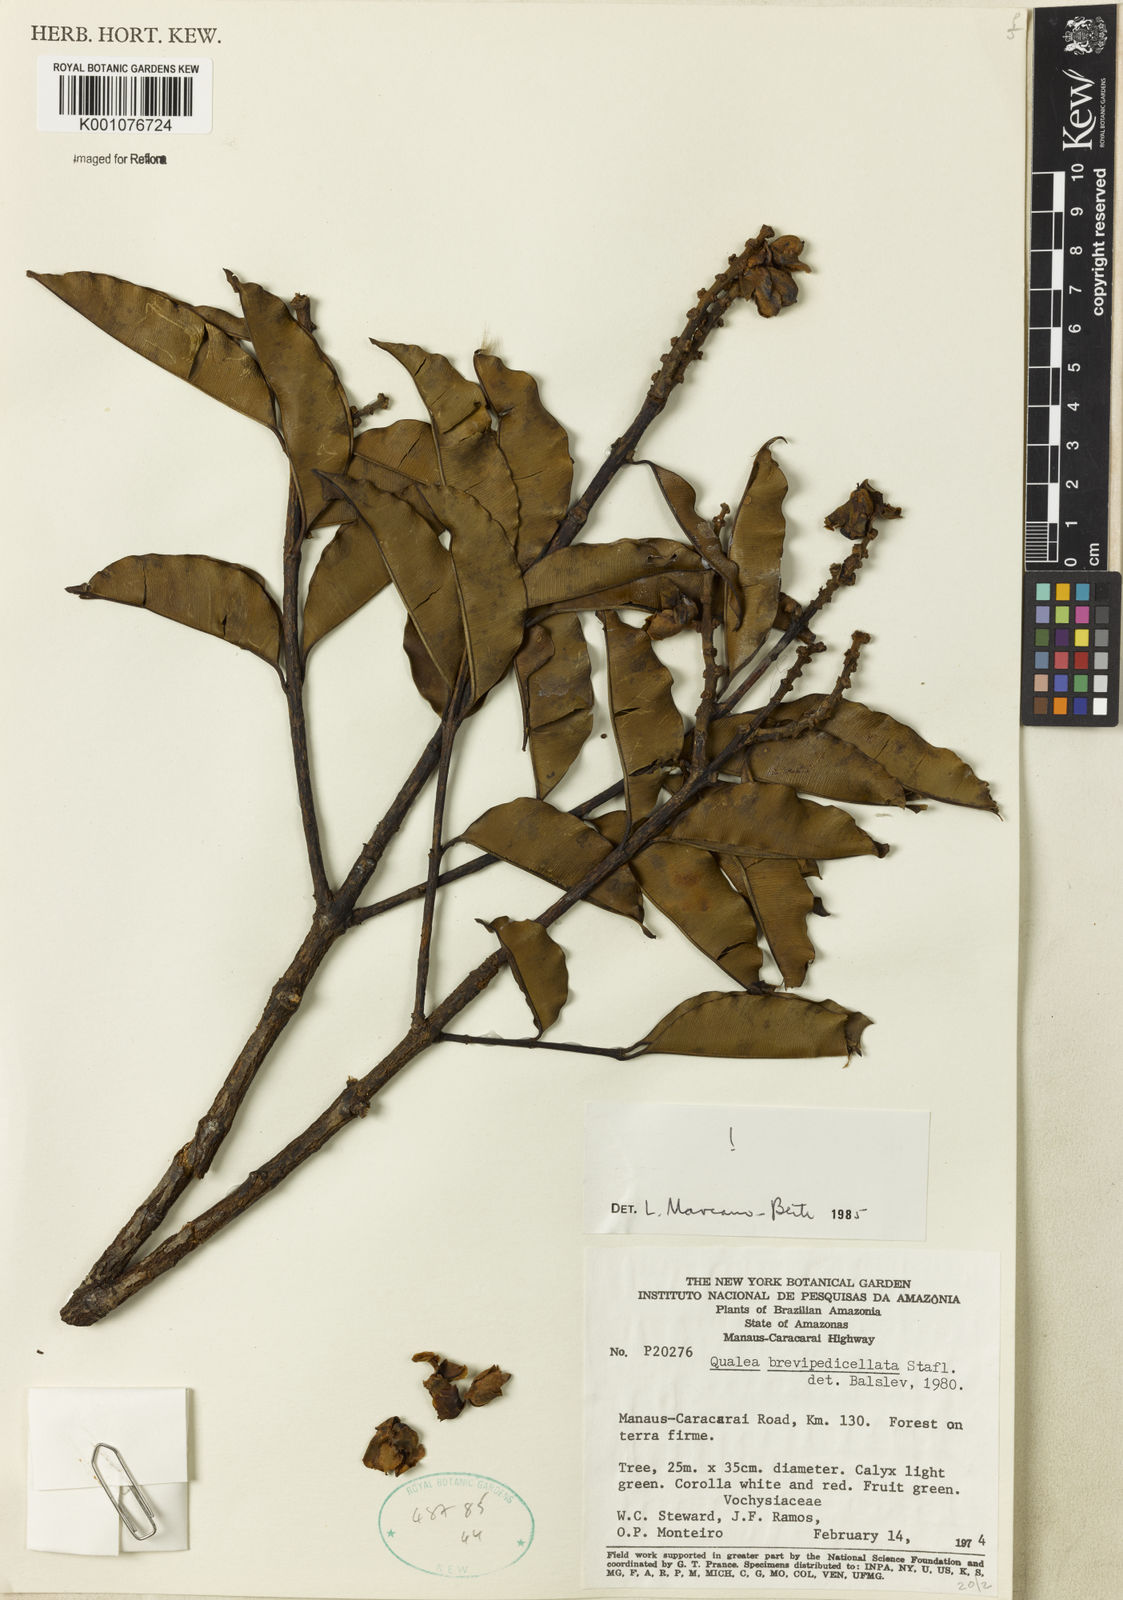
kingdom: Plantae
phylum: Tracheophyta
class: Magnoliopsida
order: Myrtales
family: Vochysiaceae
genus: Qualea
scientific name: Qualea brevipedicellata
